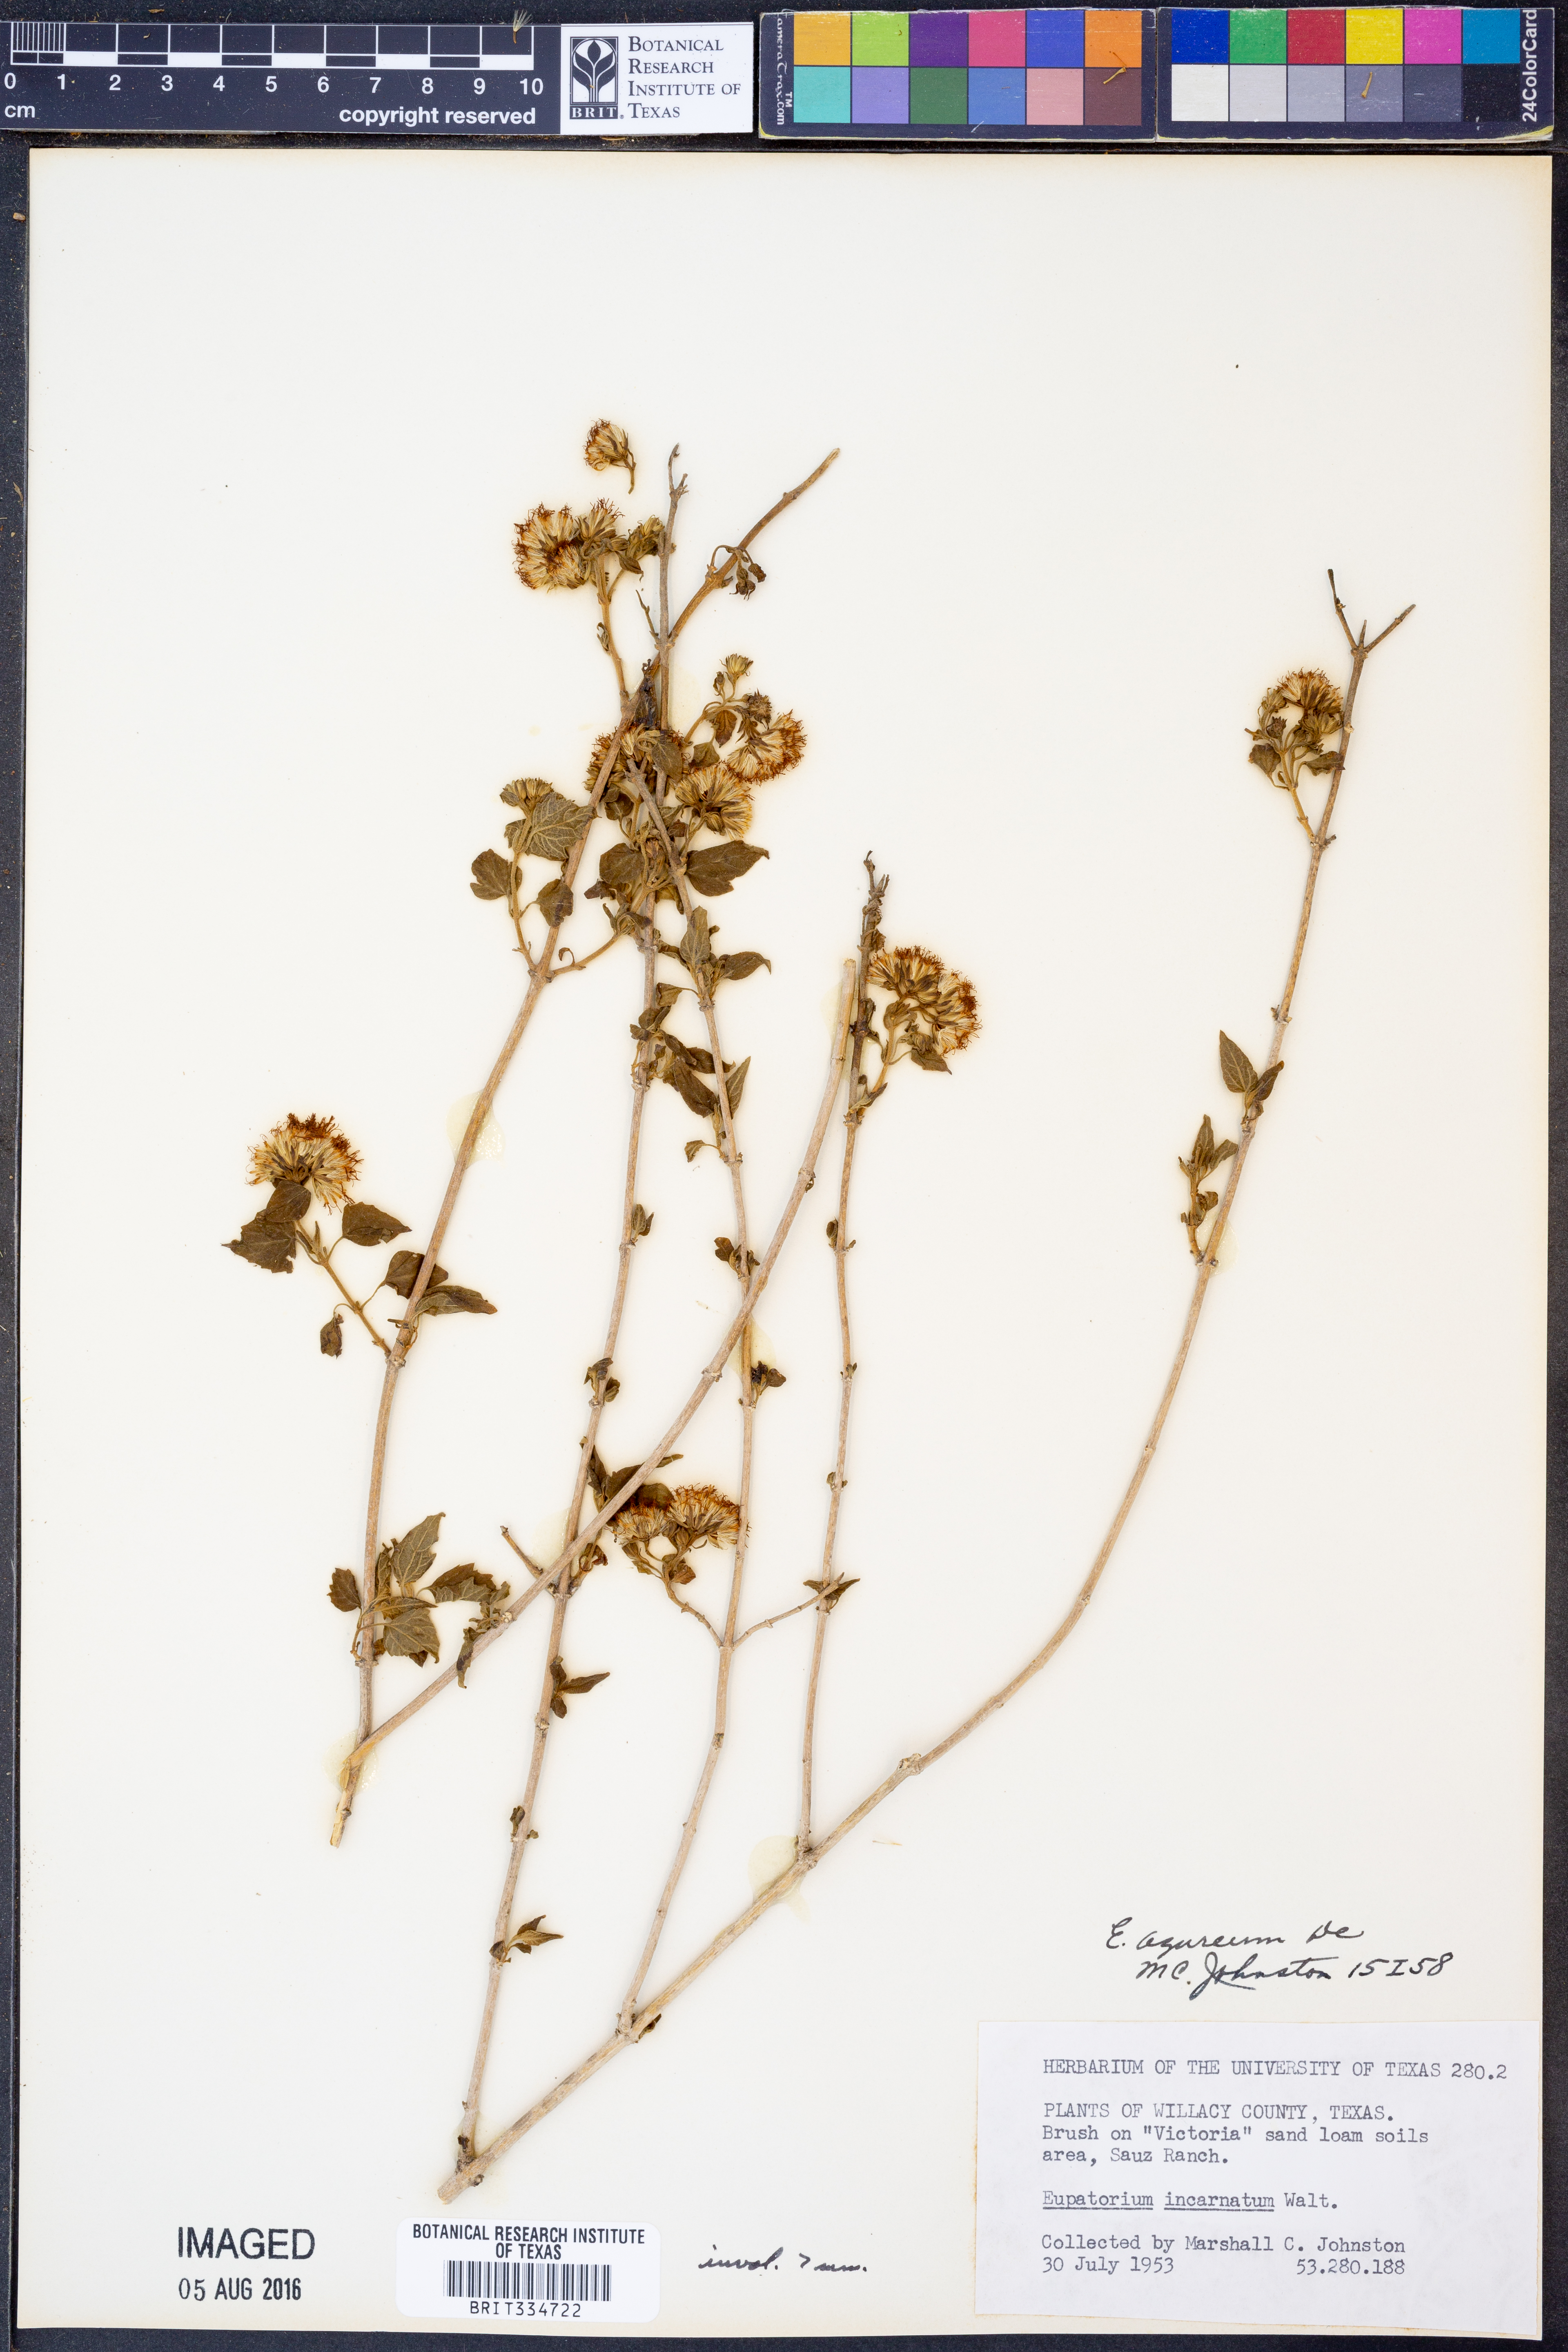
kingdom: Plantae
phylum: Tracheophyta
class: Magnoliopsida
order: Asterales
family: Asteraceae
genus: Tamaulipa
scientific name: Tamaulipa azurea
